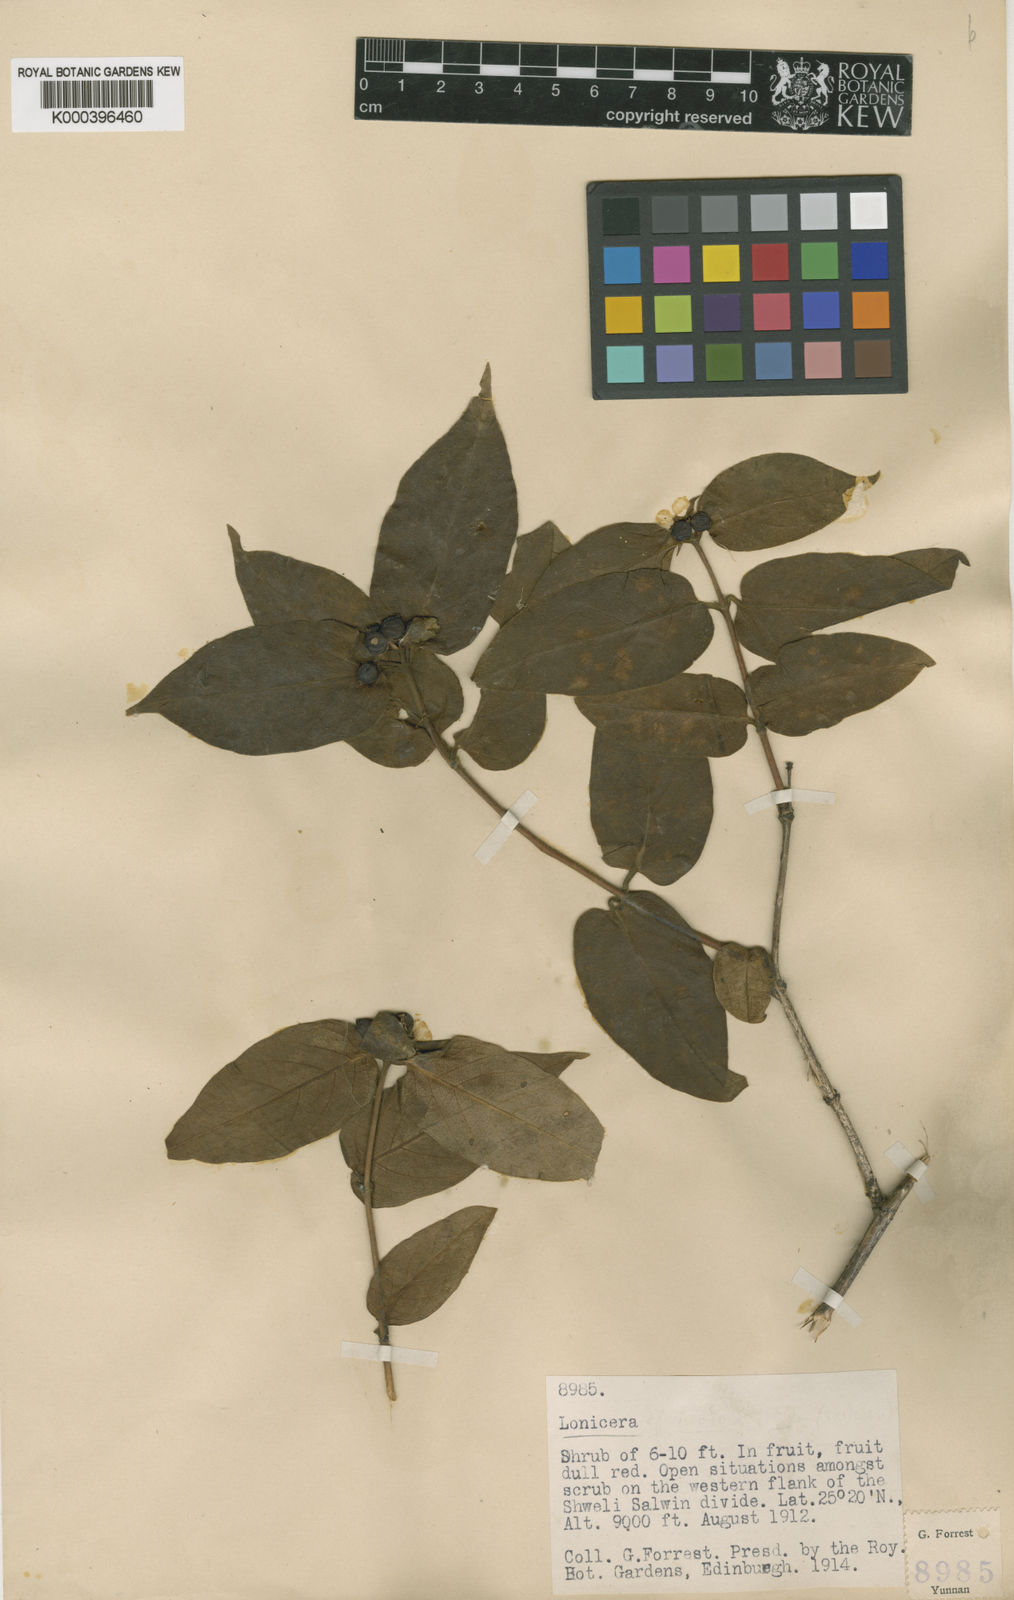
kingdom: Plantae
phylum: Tracheophyta
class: Magnoliopsida
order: Dipsacales
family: Caprifoliaceae
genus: Lonicera
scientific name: Lonicera acuminata
